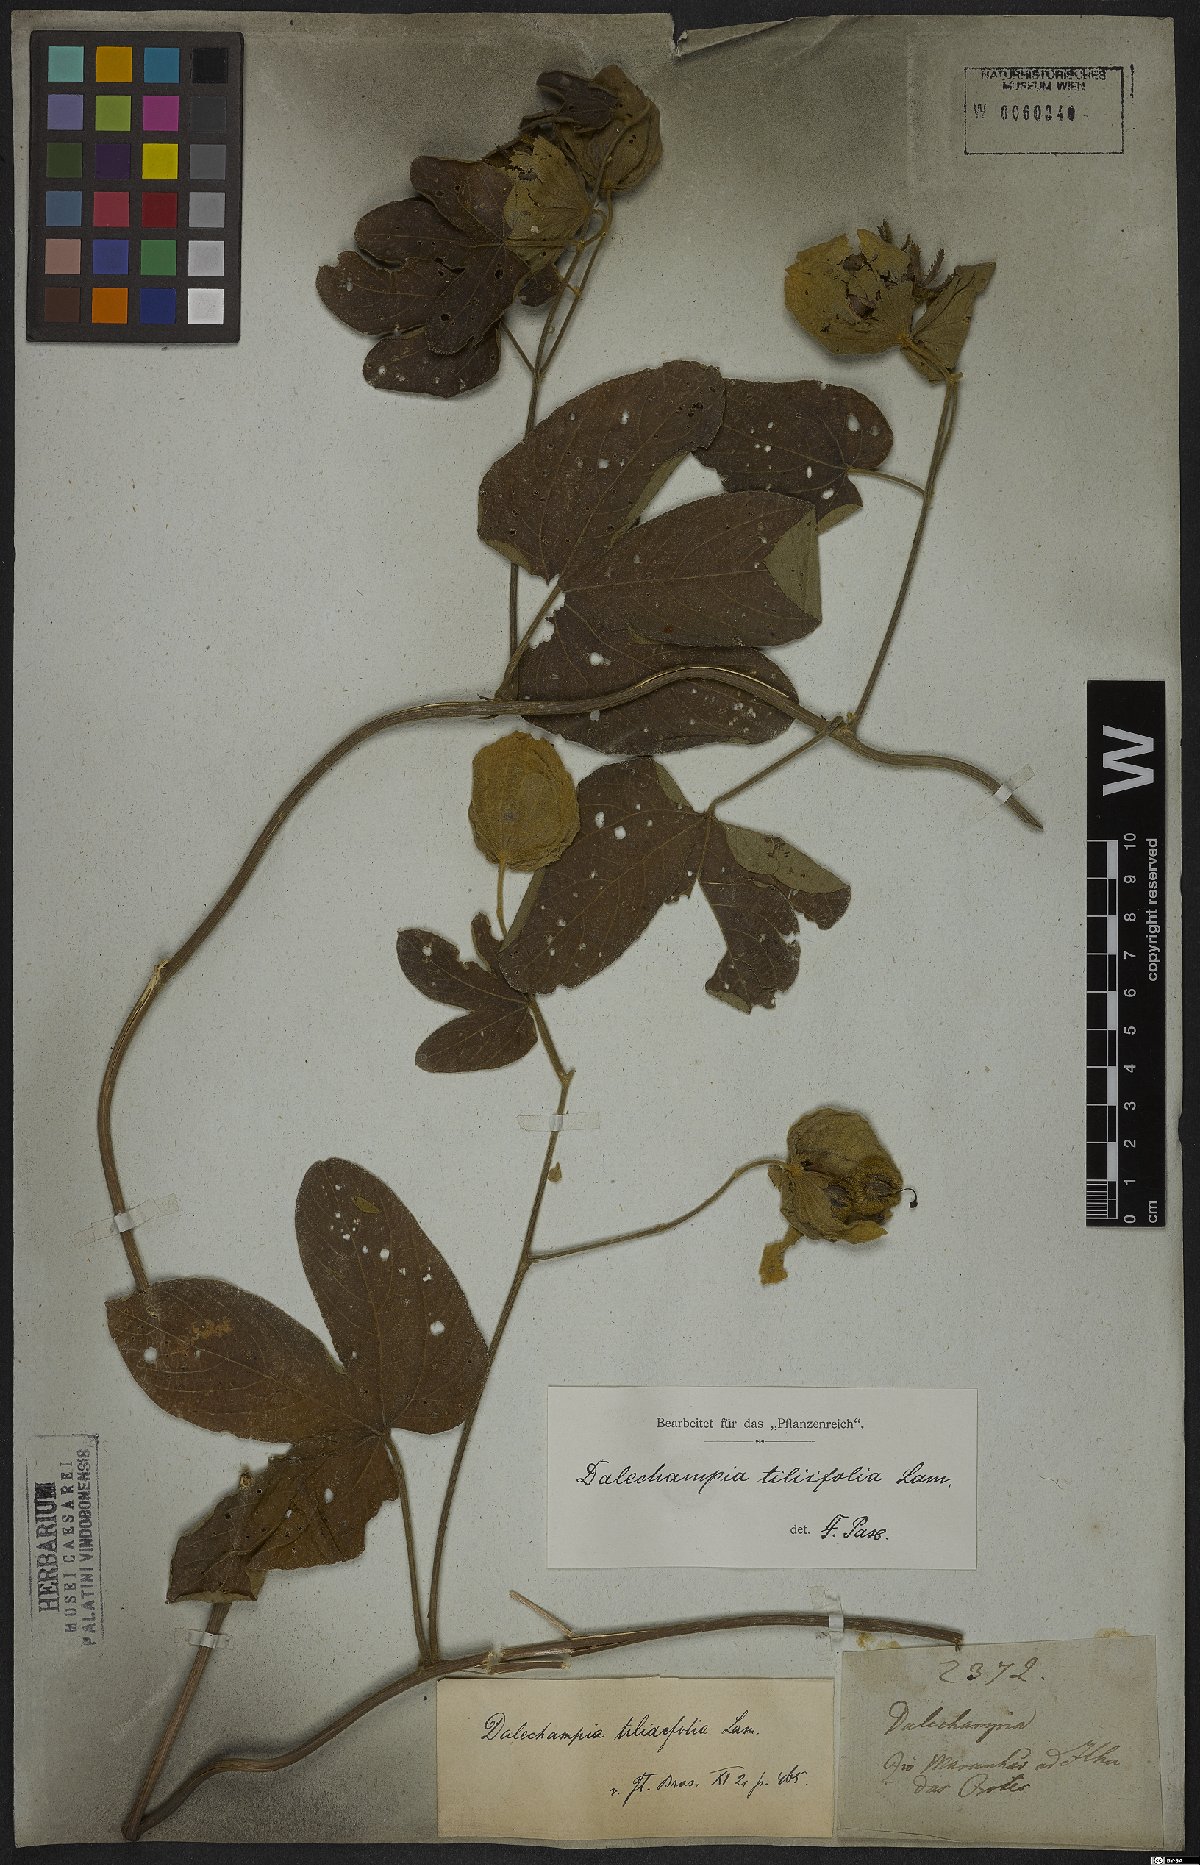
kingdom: Plantae
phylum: Tracheophyta
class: Magnoliopsida
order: Malpighiales
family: Euphorbiaceae
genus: Dalechampia
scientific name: Dalechampia tiliifolia
